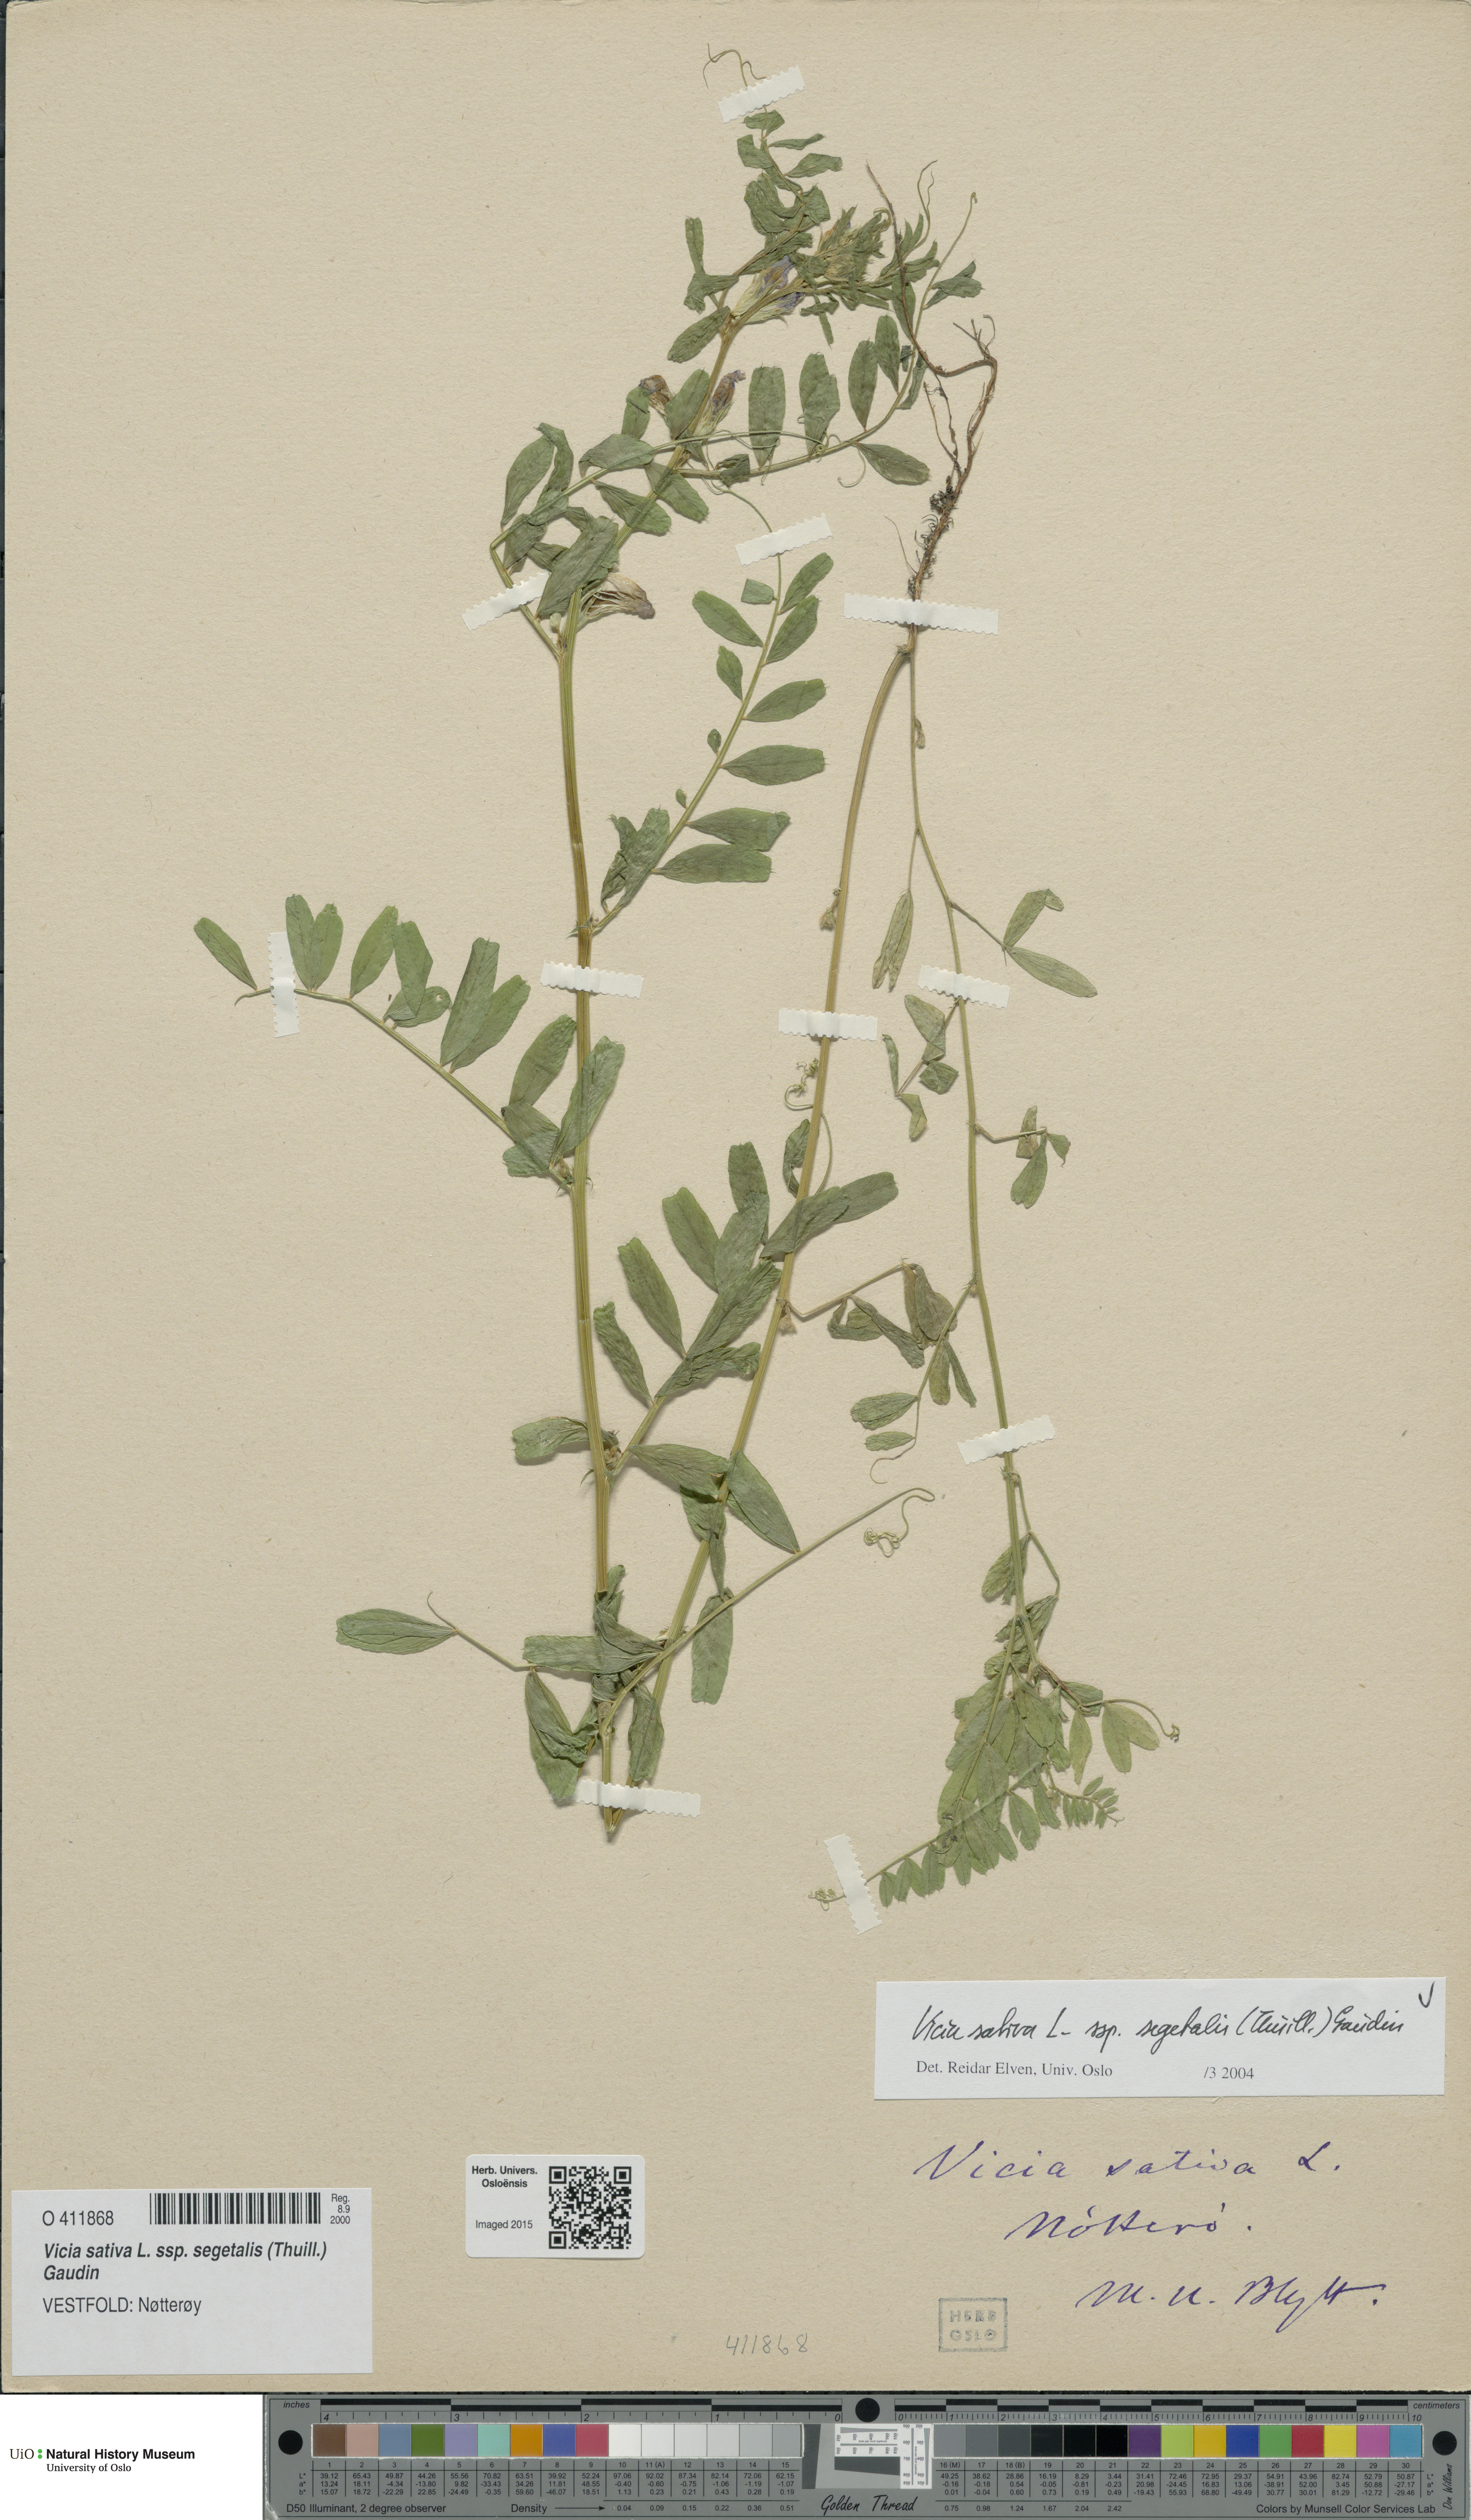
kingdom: Plantae
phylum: Tracheophyta
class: Magnoliopsida
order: Fabales
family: Fabaceae
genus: Vicia
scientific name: Vicia sativa
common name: Garden vetch
